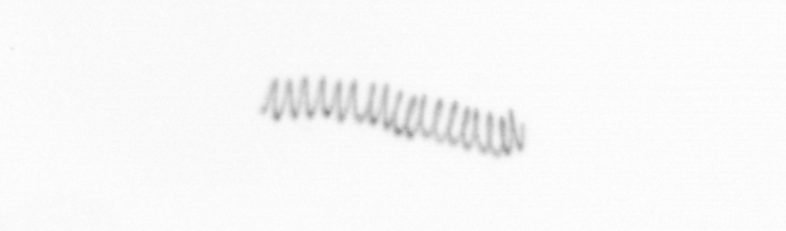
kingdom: Chromista
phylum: Ochrophyta
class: Bacillariophyceae
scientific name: Bacillariophyceae
